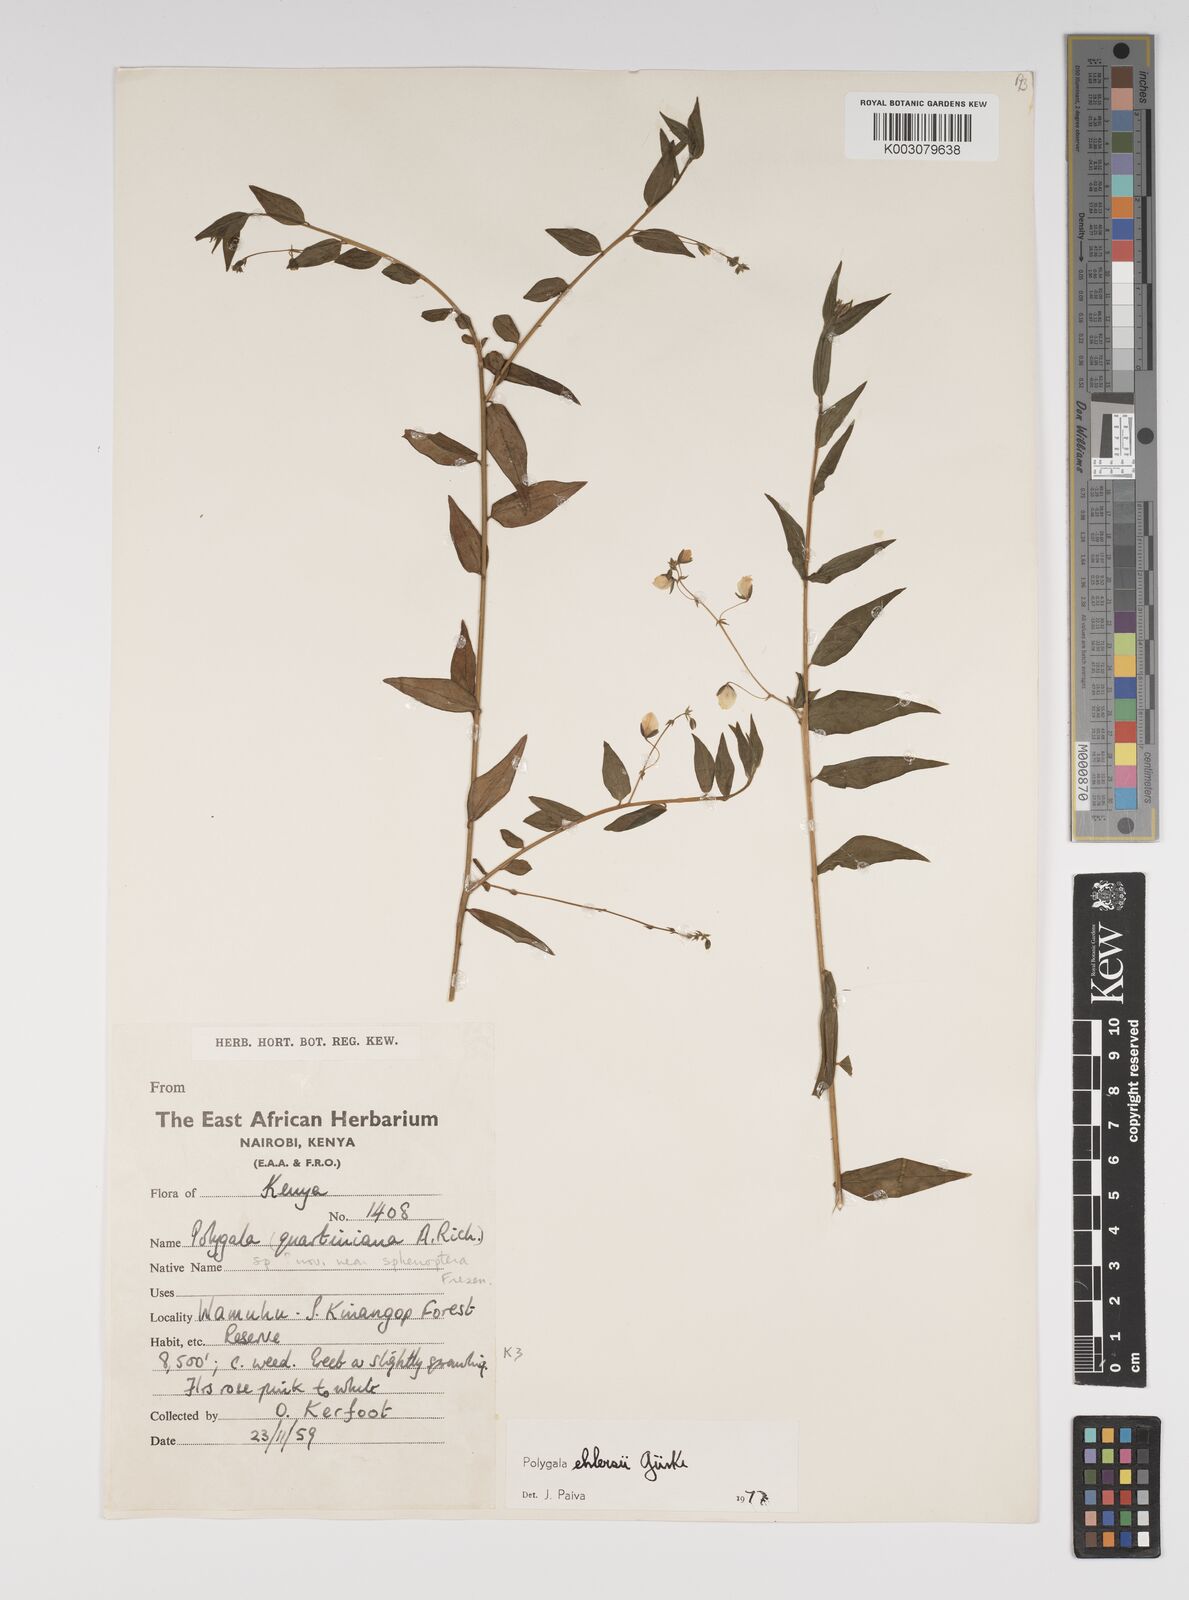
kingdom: Plantae
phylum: Tracheophyta
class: Magnoliopsida
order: Fabales
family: Polygalaceae
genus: Polygala
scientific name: Polygala ehlersii
